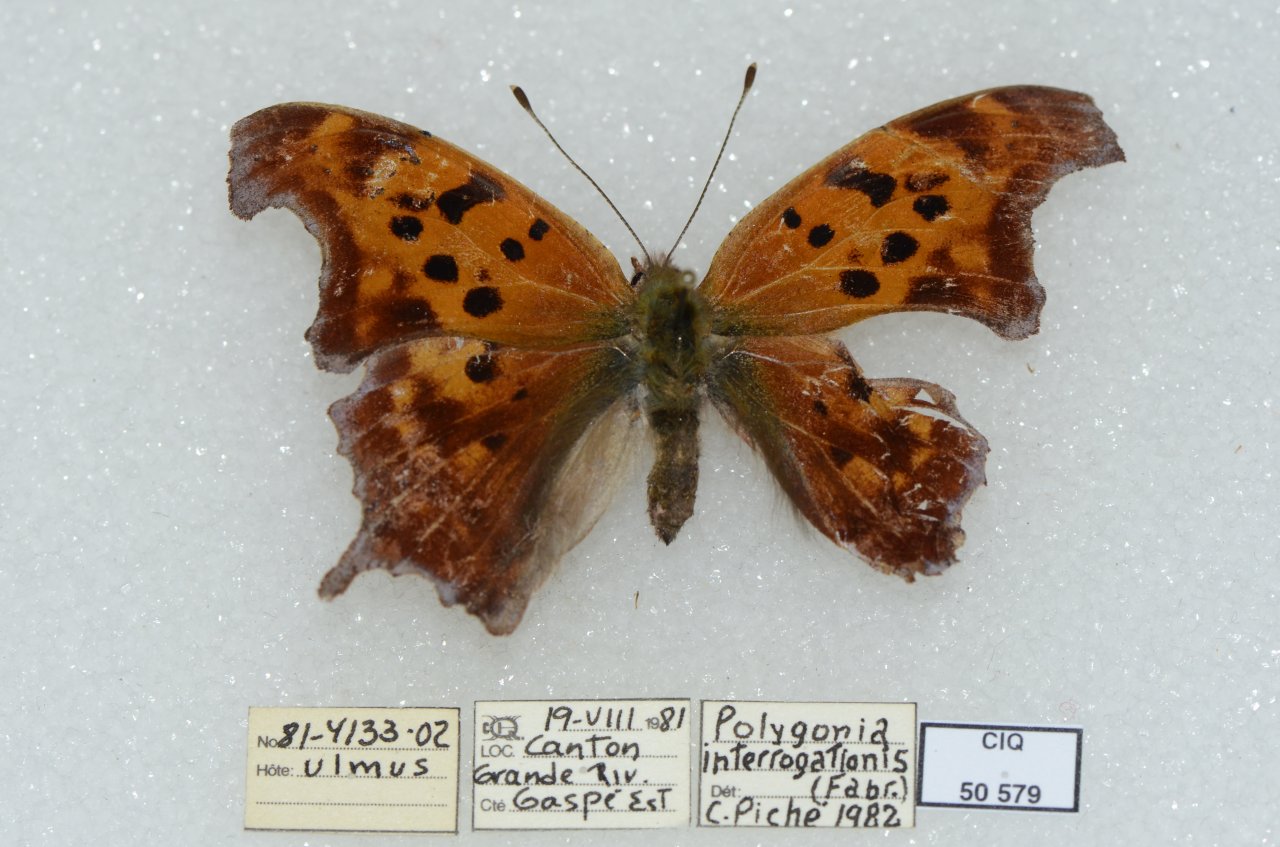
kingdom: Animalia
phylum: Arthropoda
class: Insecta
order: Lepidoptera
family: Nymphalidae
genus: Polygonia
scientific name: Polygonia interrogationis
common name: Question Mark
